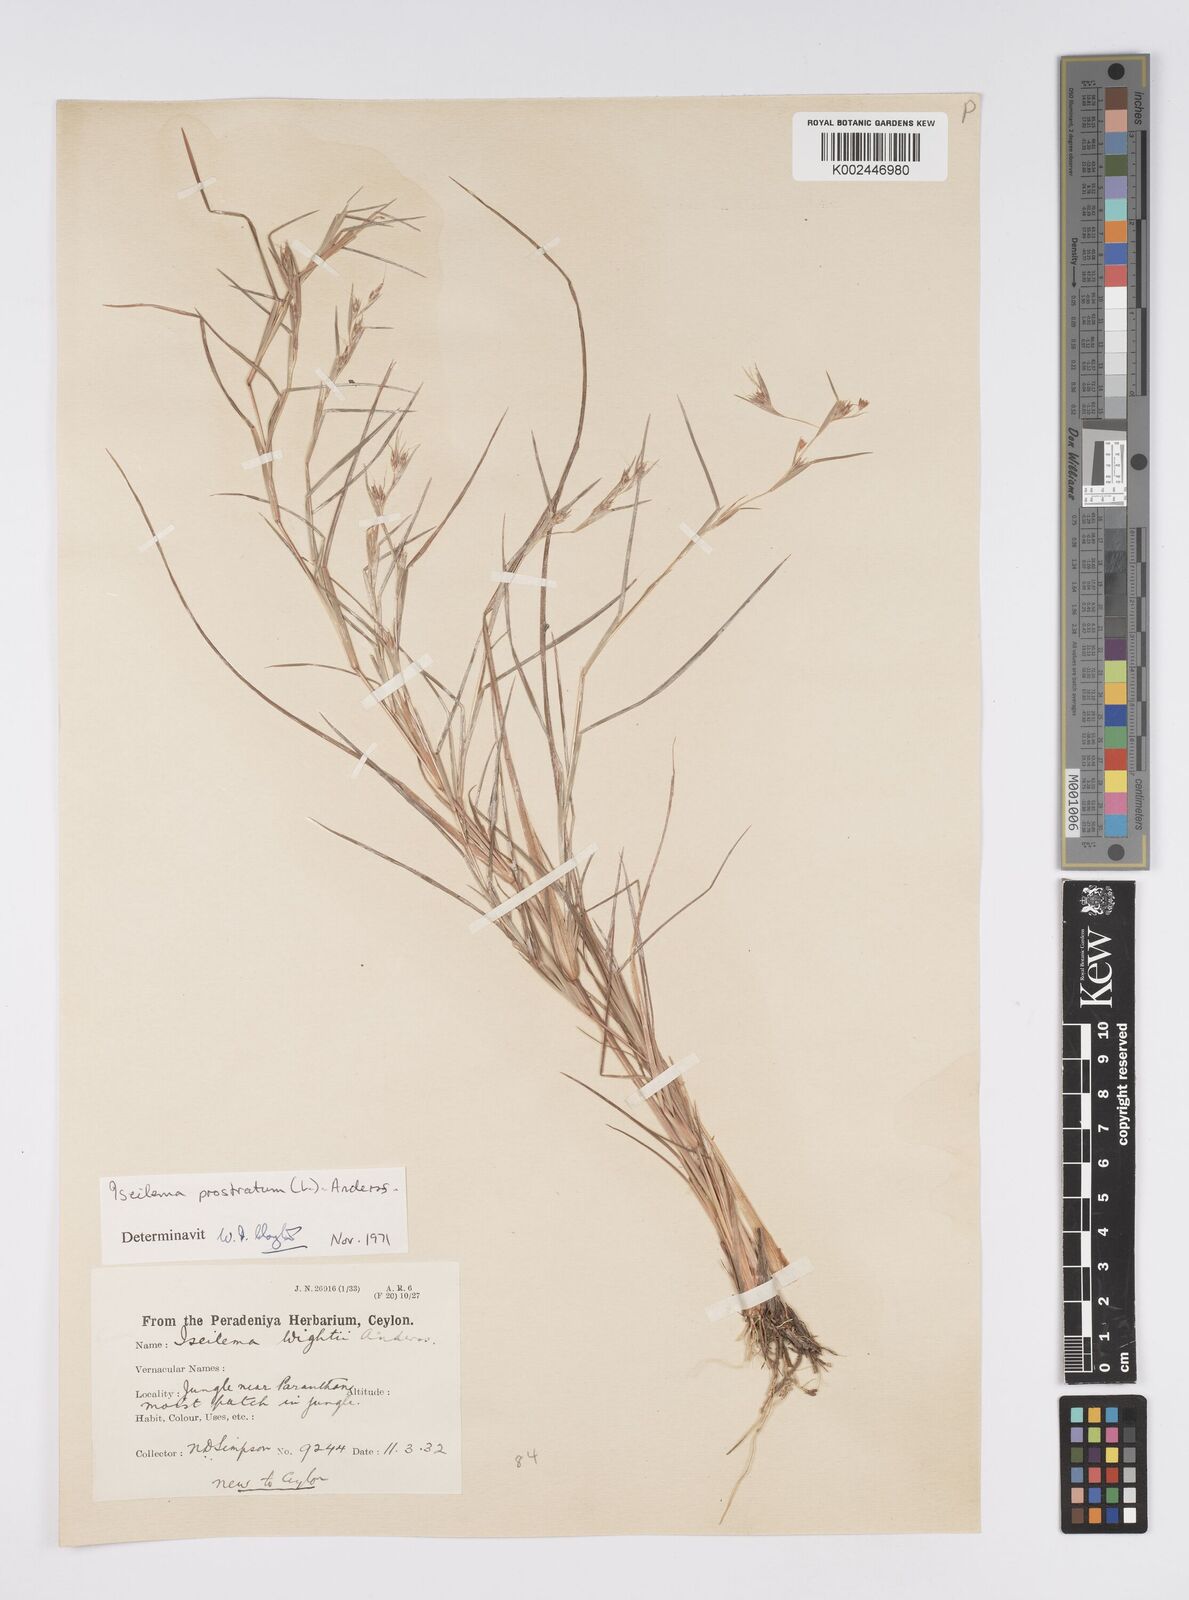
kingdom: Plantae
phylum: Tracheophyta
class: Liliopsida
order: Poales
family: Poaceae
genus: Iseilema
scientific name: Iseilema prostratum
